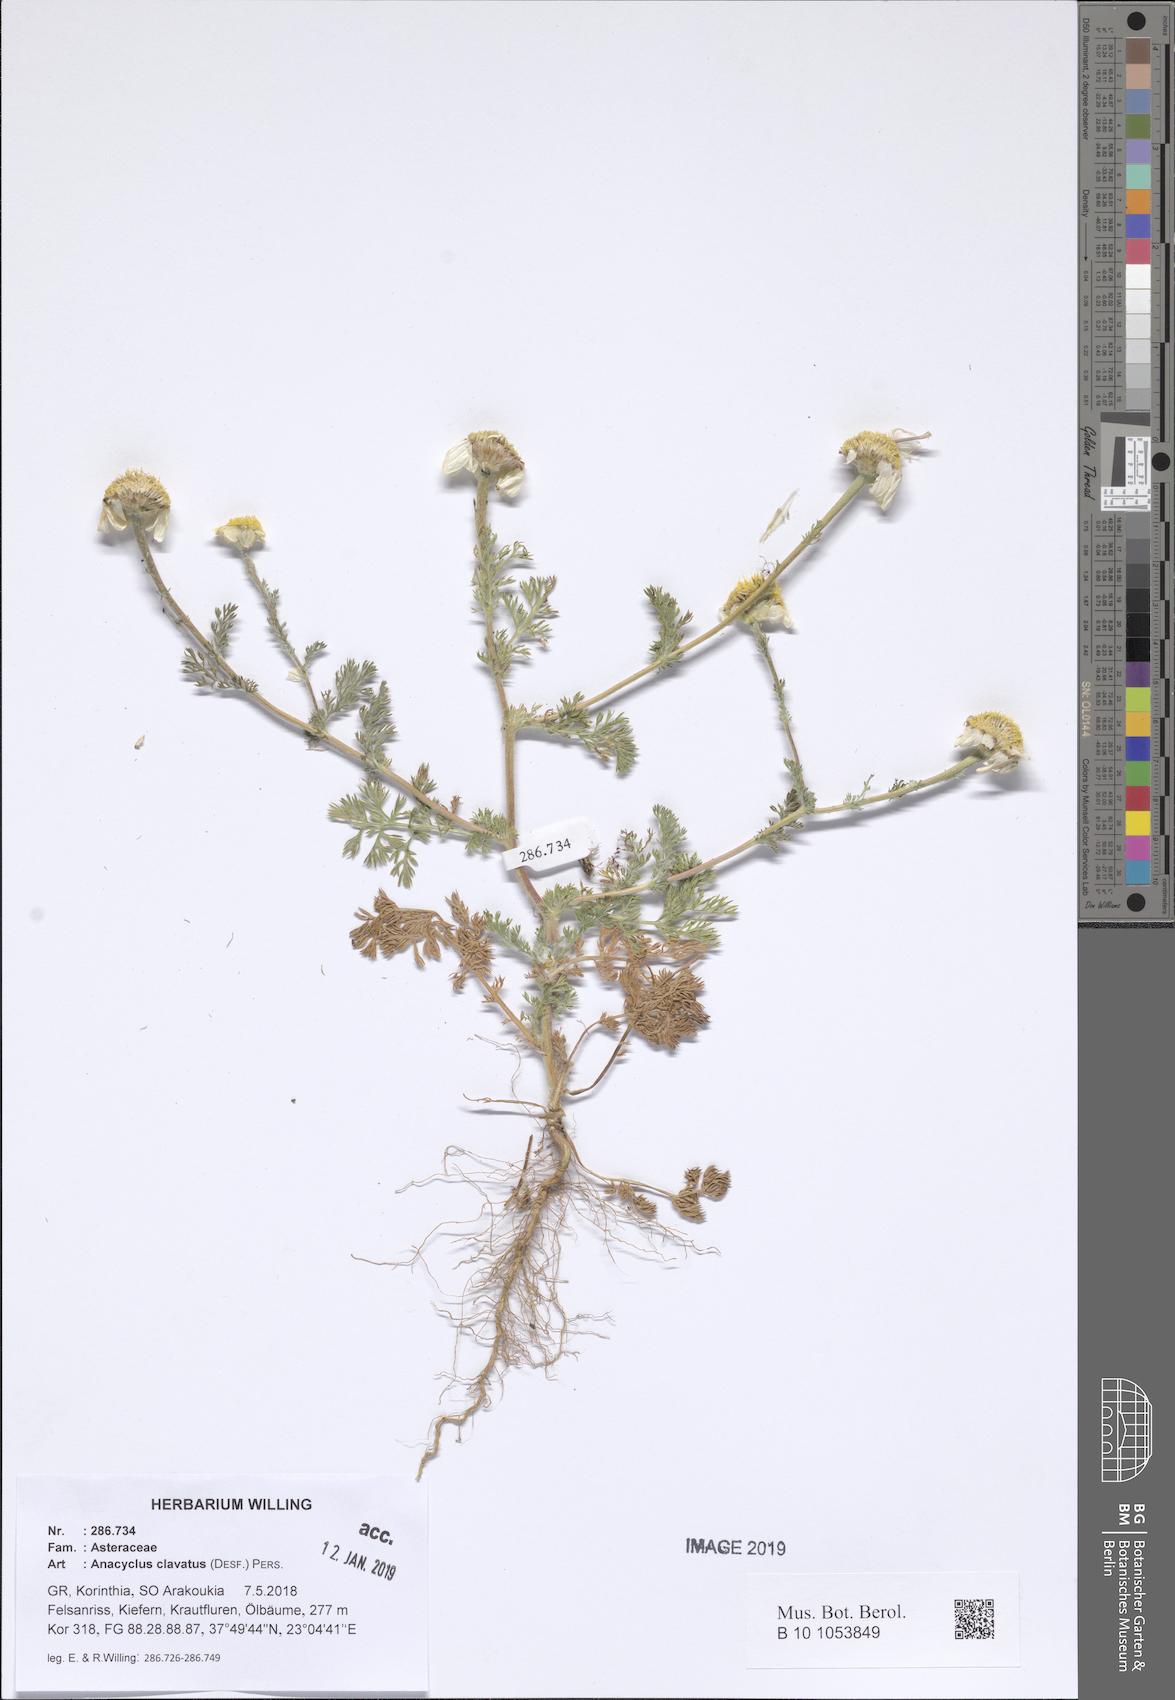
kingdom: Plantae
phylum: Tracheophyta
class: Magnoliopsida
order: Asterales
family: Asteraceae
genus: Anacyclus
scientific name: Anacyclus clavatus
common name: Whitebuttons
